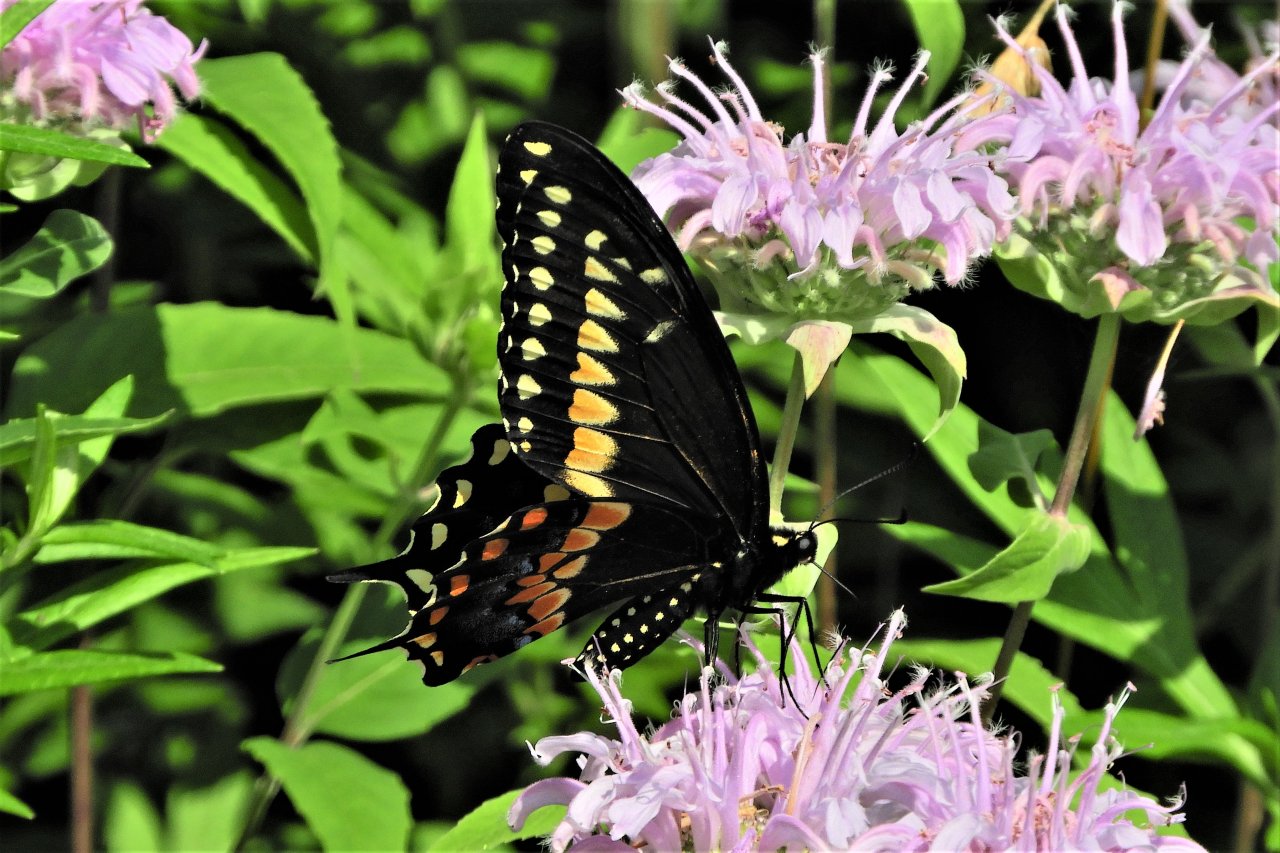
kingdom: Animalia
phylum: Arthropoda
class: Insecta
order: Lepidoptera
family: Papilionidae
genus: Papilio
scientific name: Papilio polyxenes
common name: Black Swallowtail
